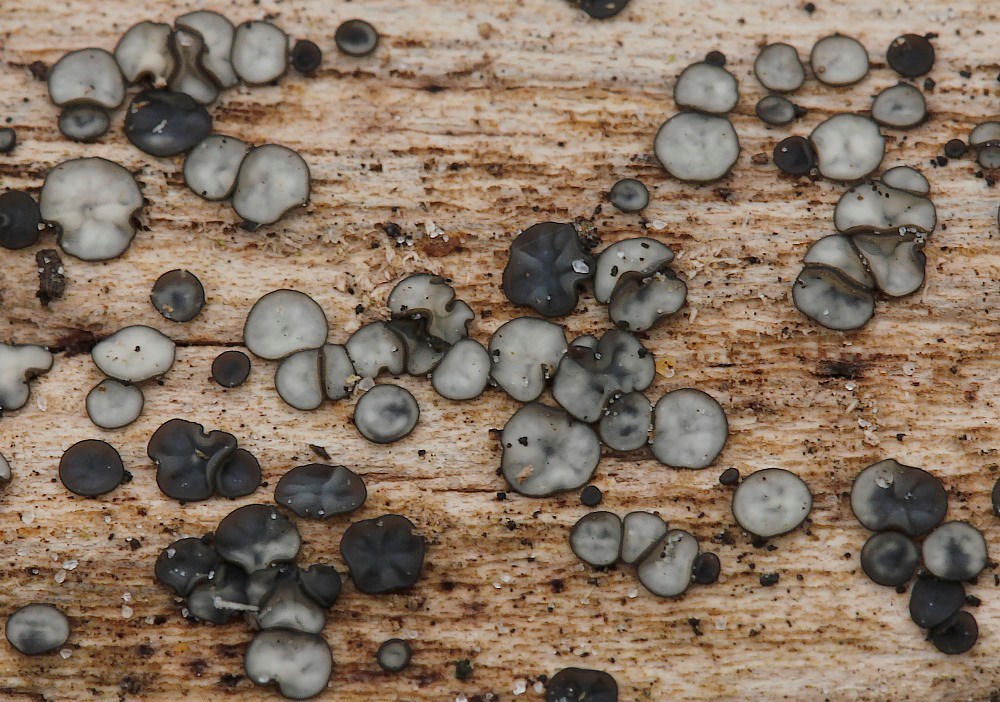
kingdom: Fungi
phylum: Ascomycota
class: Leotiomycetes
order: Helotiales
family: Mollisiaceae
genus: Mollisia
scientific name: Mollisia melaleuca
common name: sorthvid gråskive
